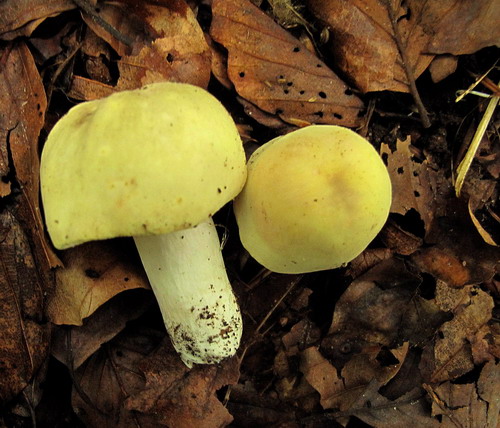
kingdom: Fungi
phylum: Basidiomycota
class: Agaricomycetes
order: Russulales
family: Russulaceae
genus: Russula
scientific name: Russula violeipes
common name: ferskengul skørhat
